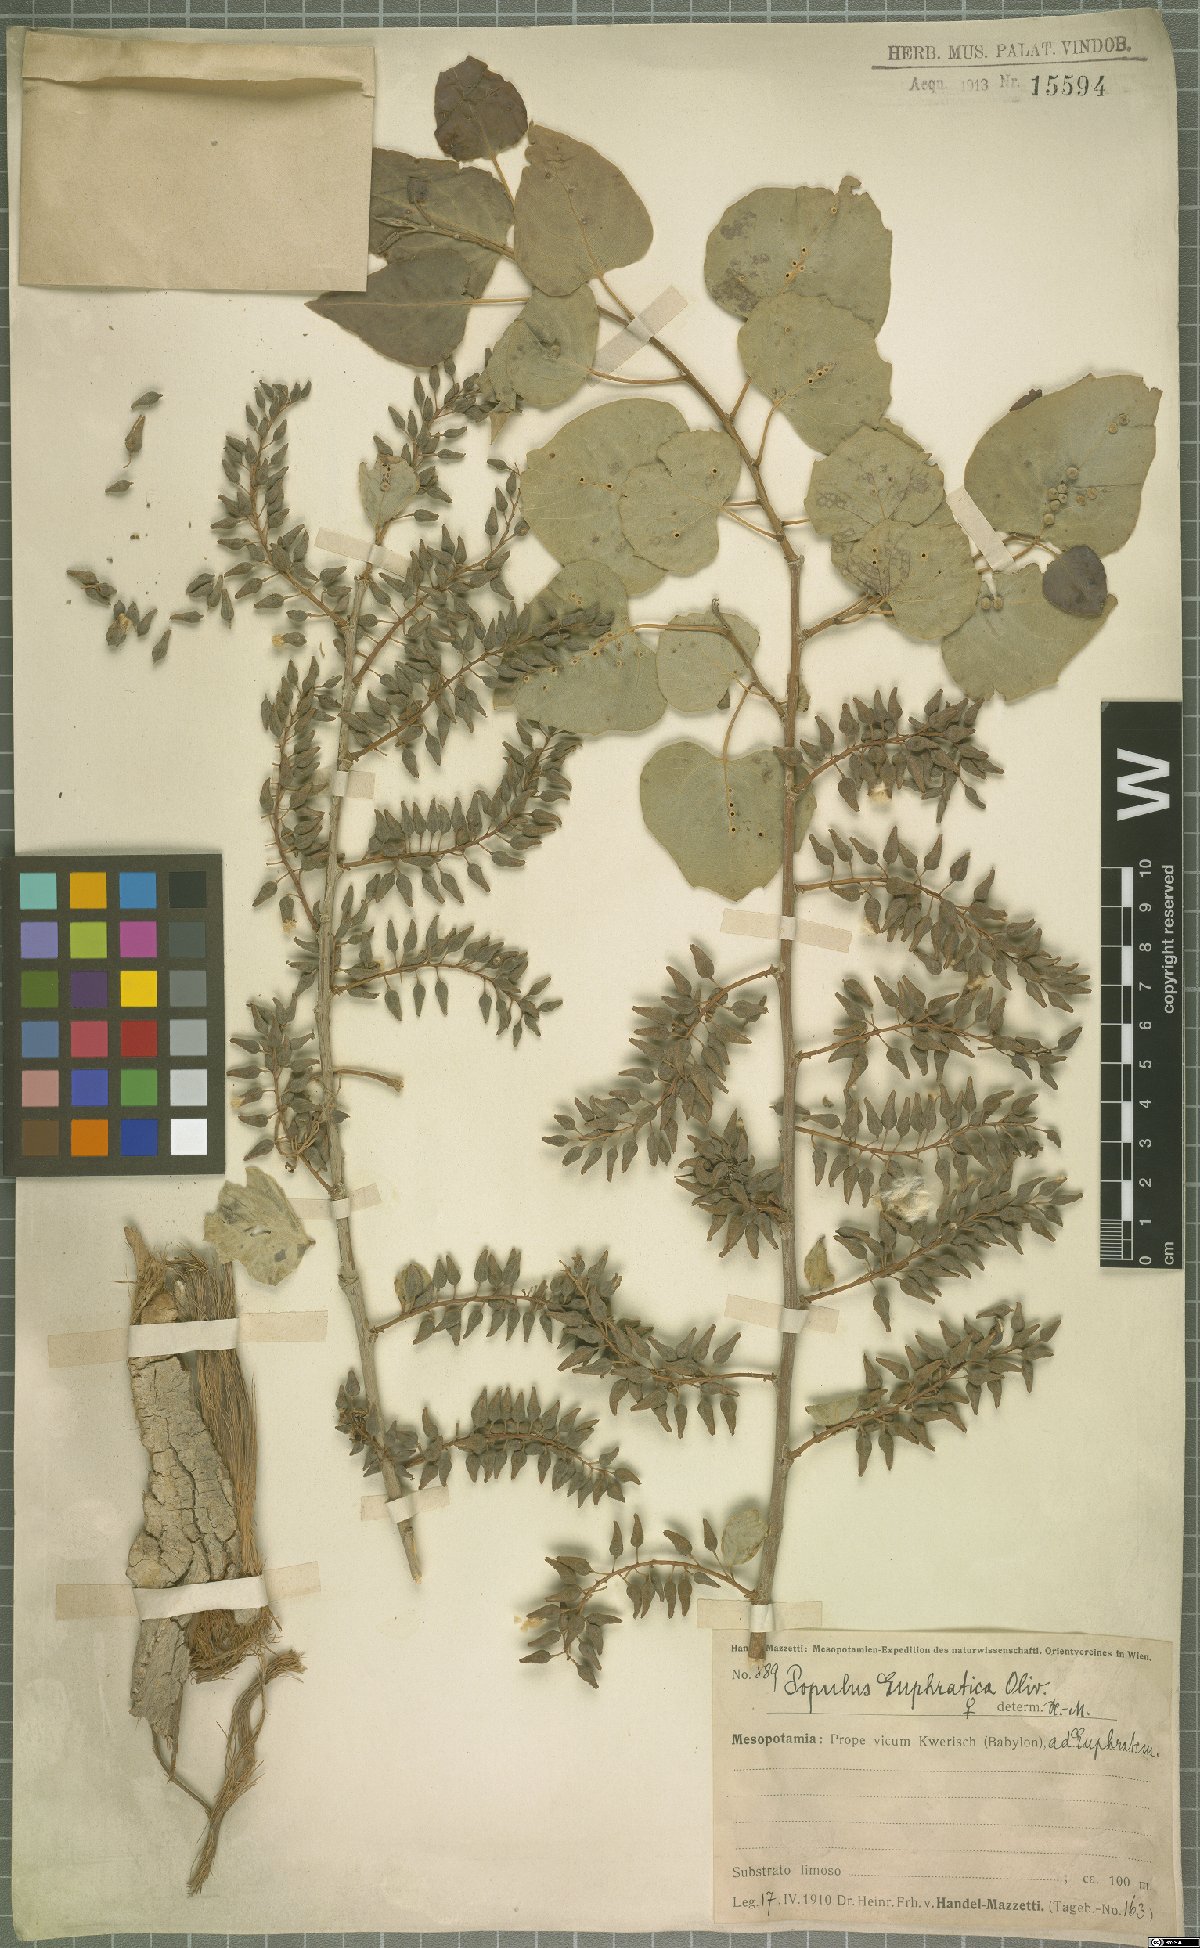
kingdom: Plantae
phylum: Tracheophyta
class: Magnoliopsida
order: Malpighiales
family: Salicaceae
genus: Populus
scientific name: Populus euphratica
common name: Euphrates poplar
